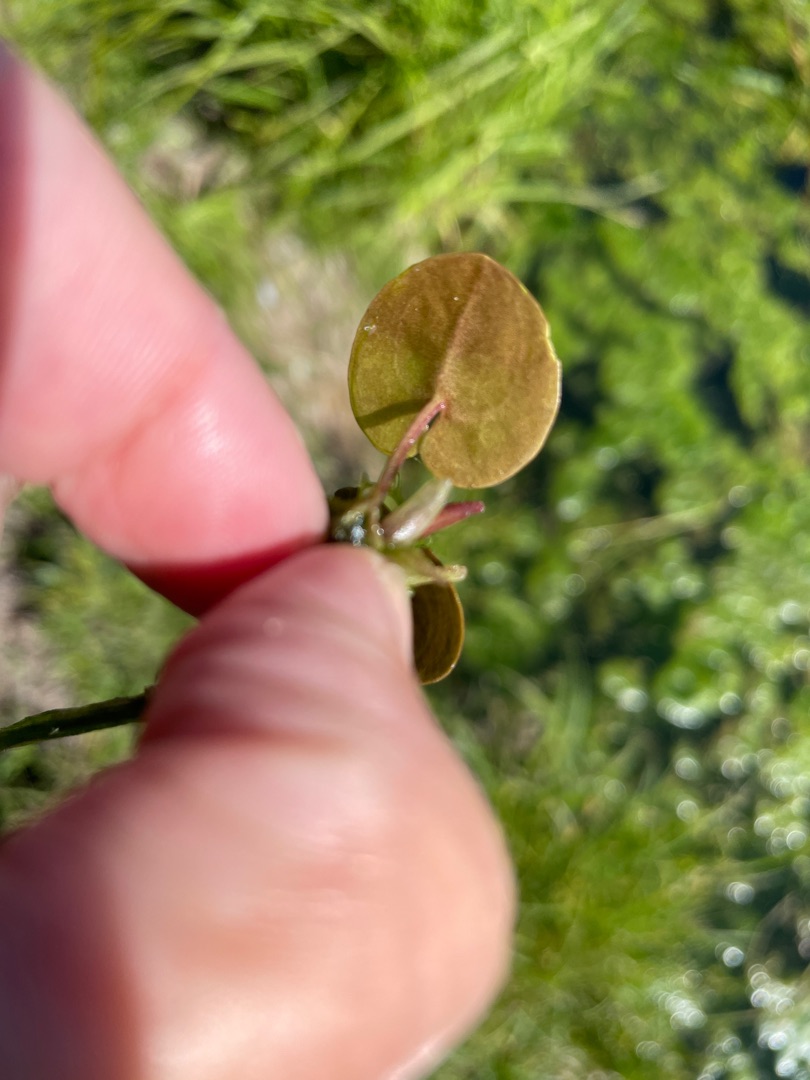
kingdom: Plantae
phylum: Tracheophyta
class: Liliopsida
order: Alismatales
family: Hydrocharitaceae
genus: Hydrocharis
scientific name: Hydrocharis morsus-ranae
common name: Frøbid
